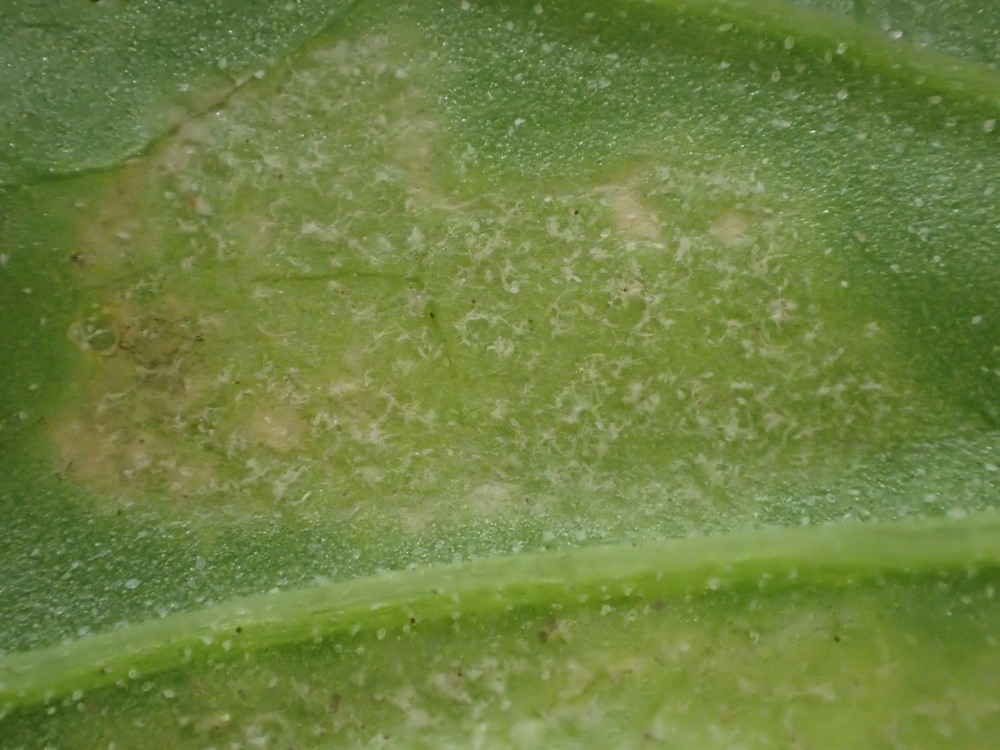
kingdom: Chromista
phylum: Oomycota
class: Peronosporea
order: Peronosporales
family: Peronosporaceae
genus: Peronospora
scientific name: Peronospora farinosa
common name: Beet downy mildew
